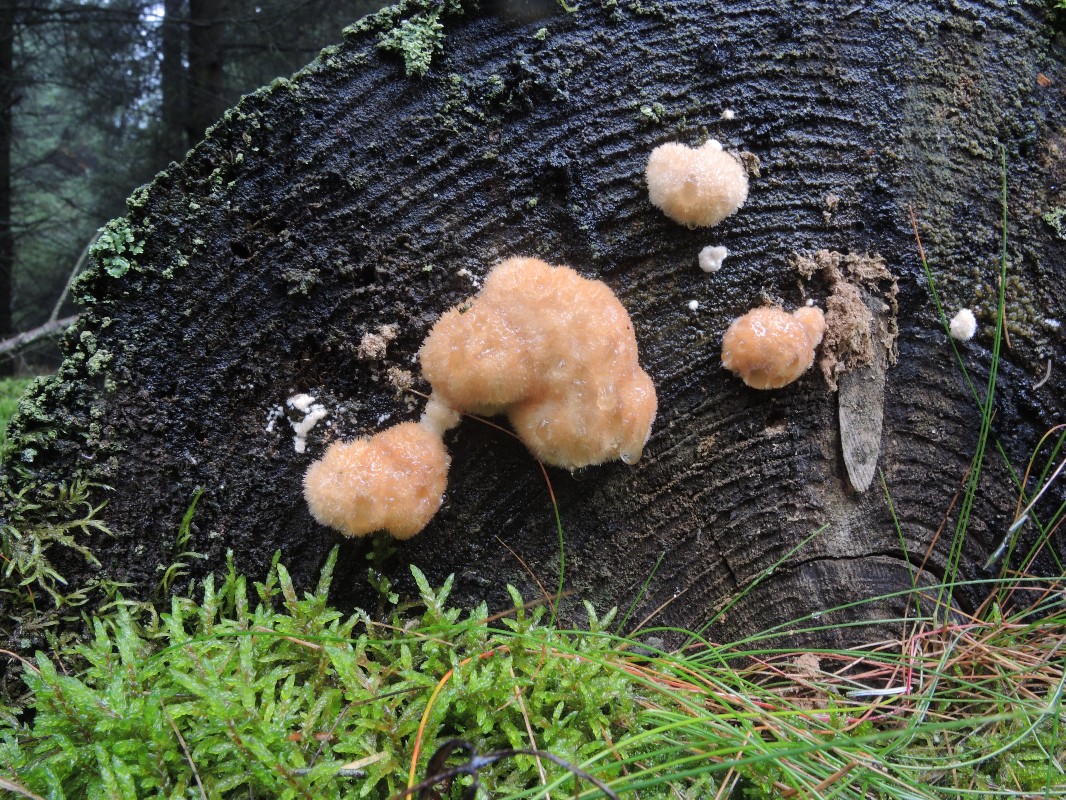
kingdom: Fungi
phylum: Basidiomycota
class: Agaricomycetes
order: Polyporales
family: Dacryobolaceae
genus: Postia
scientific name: Postia ptychogaster
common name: støvende kødporesvamp
